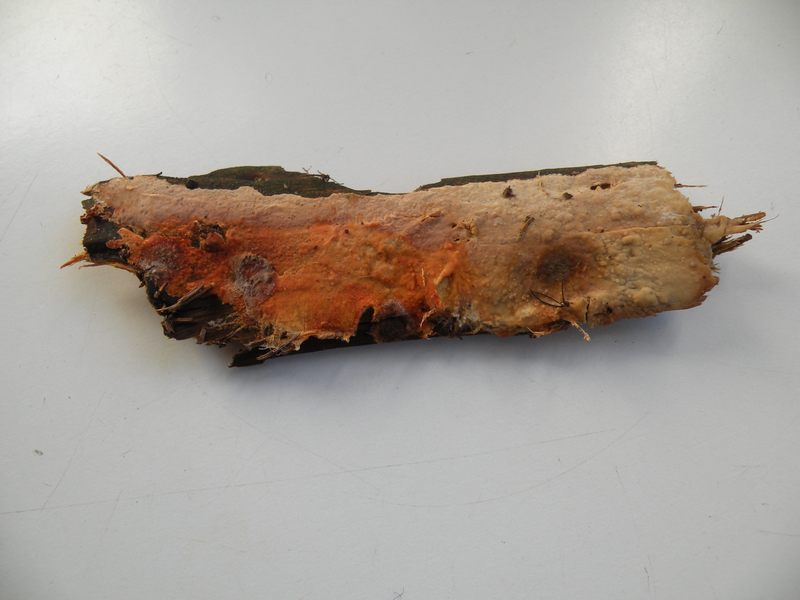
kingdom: Fungi
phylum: Basidiomycota
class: Agaricomycetes
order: Polyporales
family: Phanerochaetaceae
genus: Phanerochaete
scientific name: Phanerochaete velutina
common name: dunet randtråd
